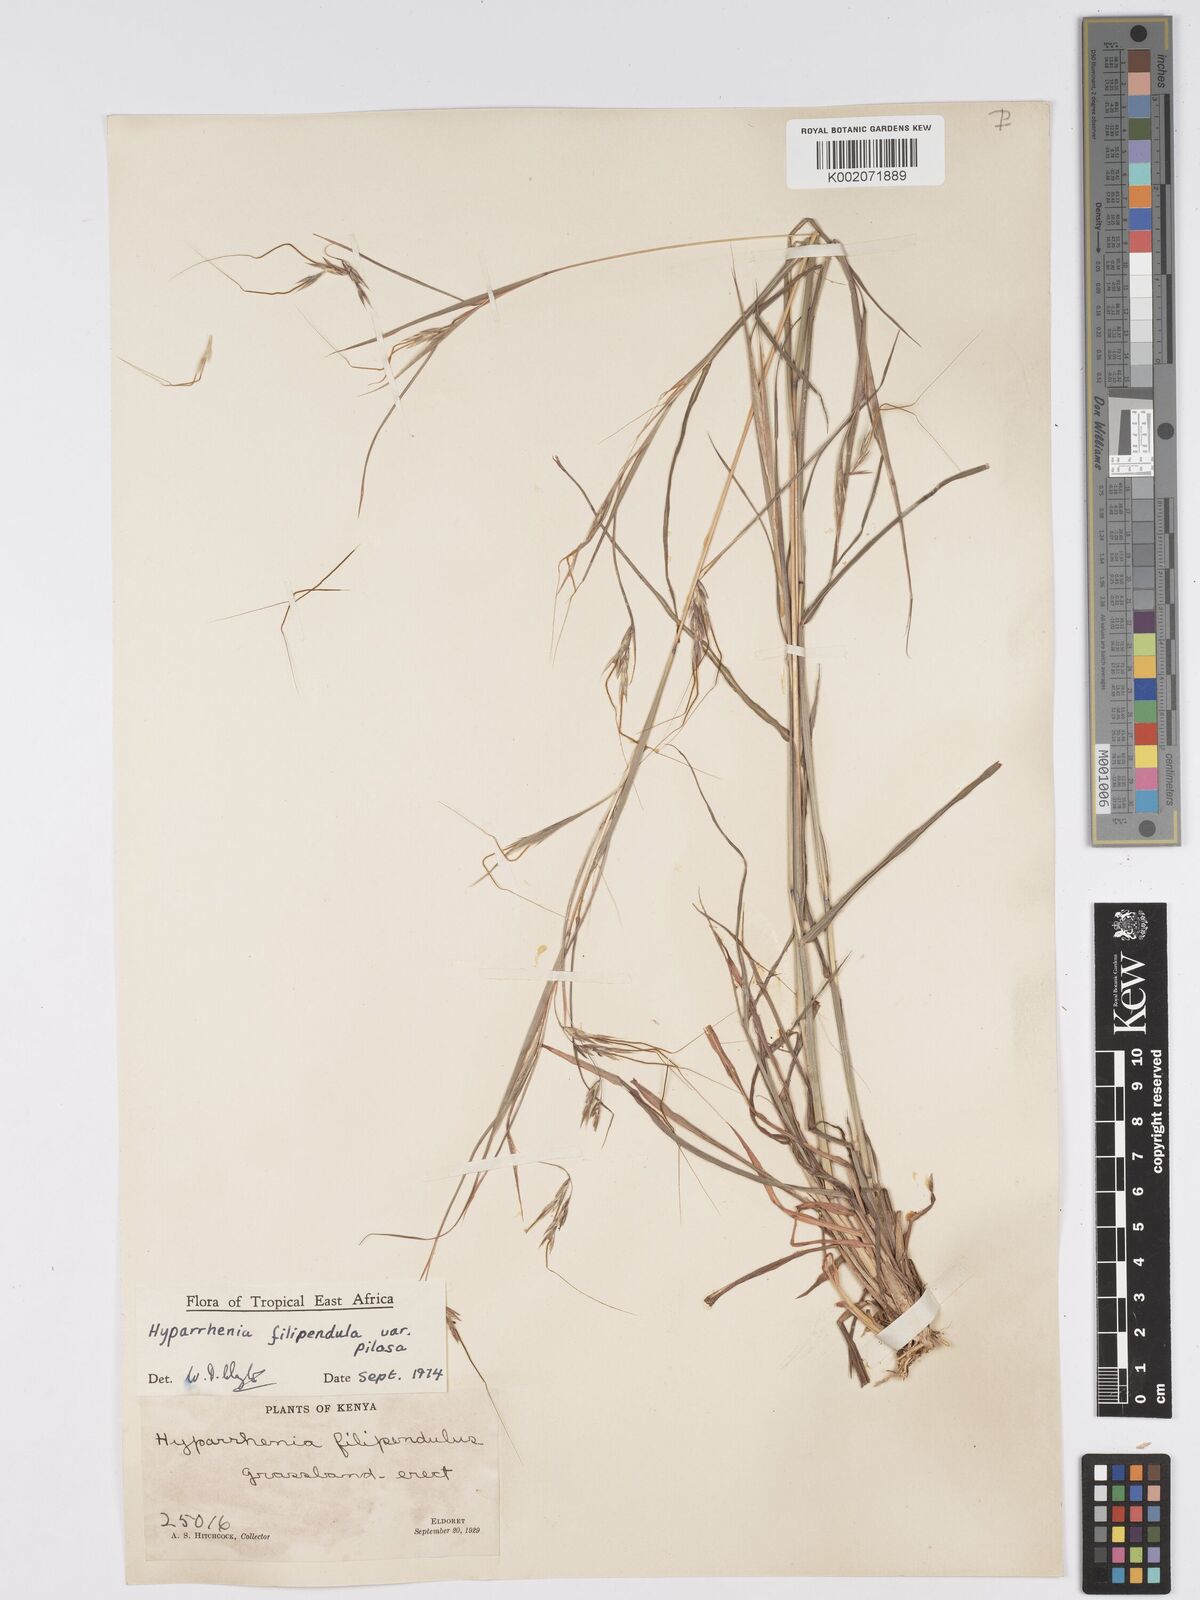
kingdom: Plantae
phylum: Tracheophyta
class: Liliopsida
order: Poales
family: Poaceae
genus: Hyparrhenia
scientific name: Hyparrhenia filipendula
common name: Tambookie grass
